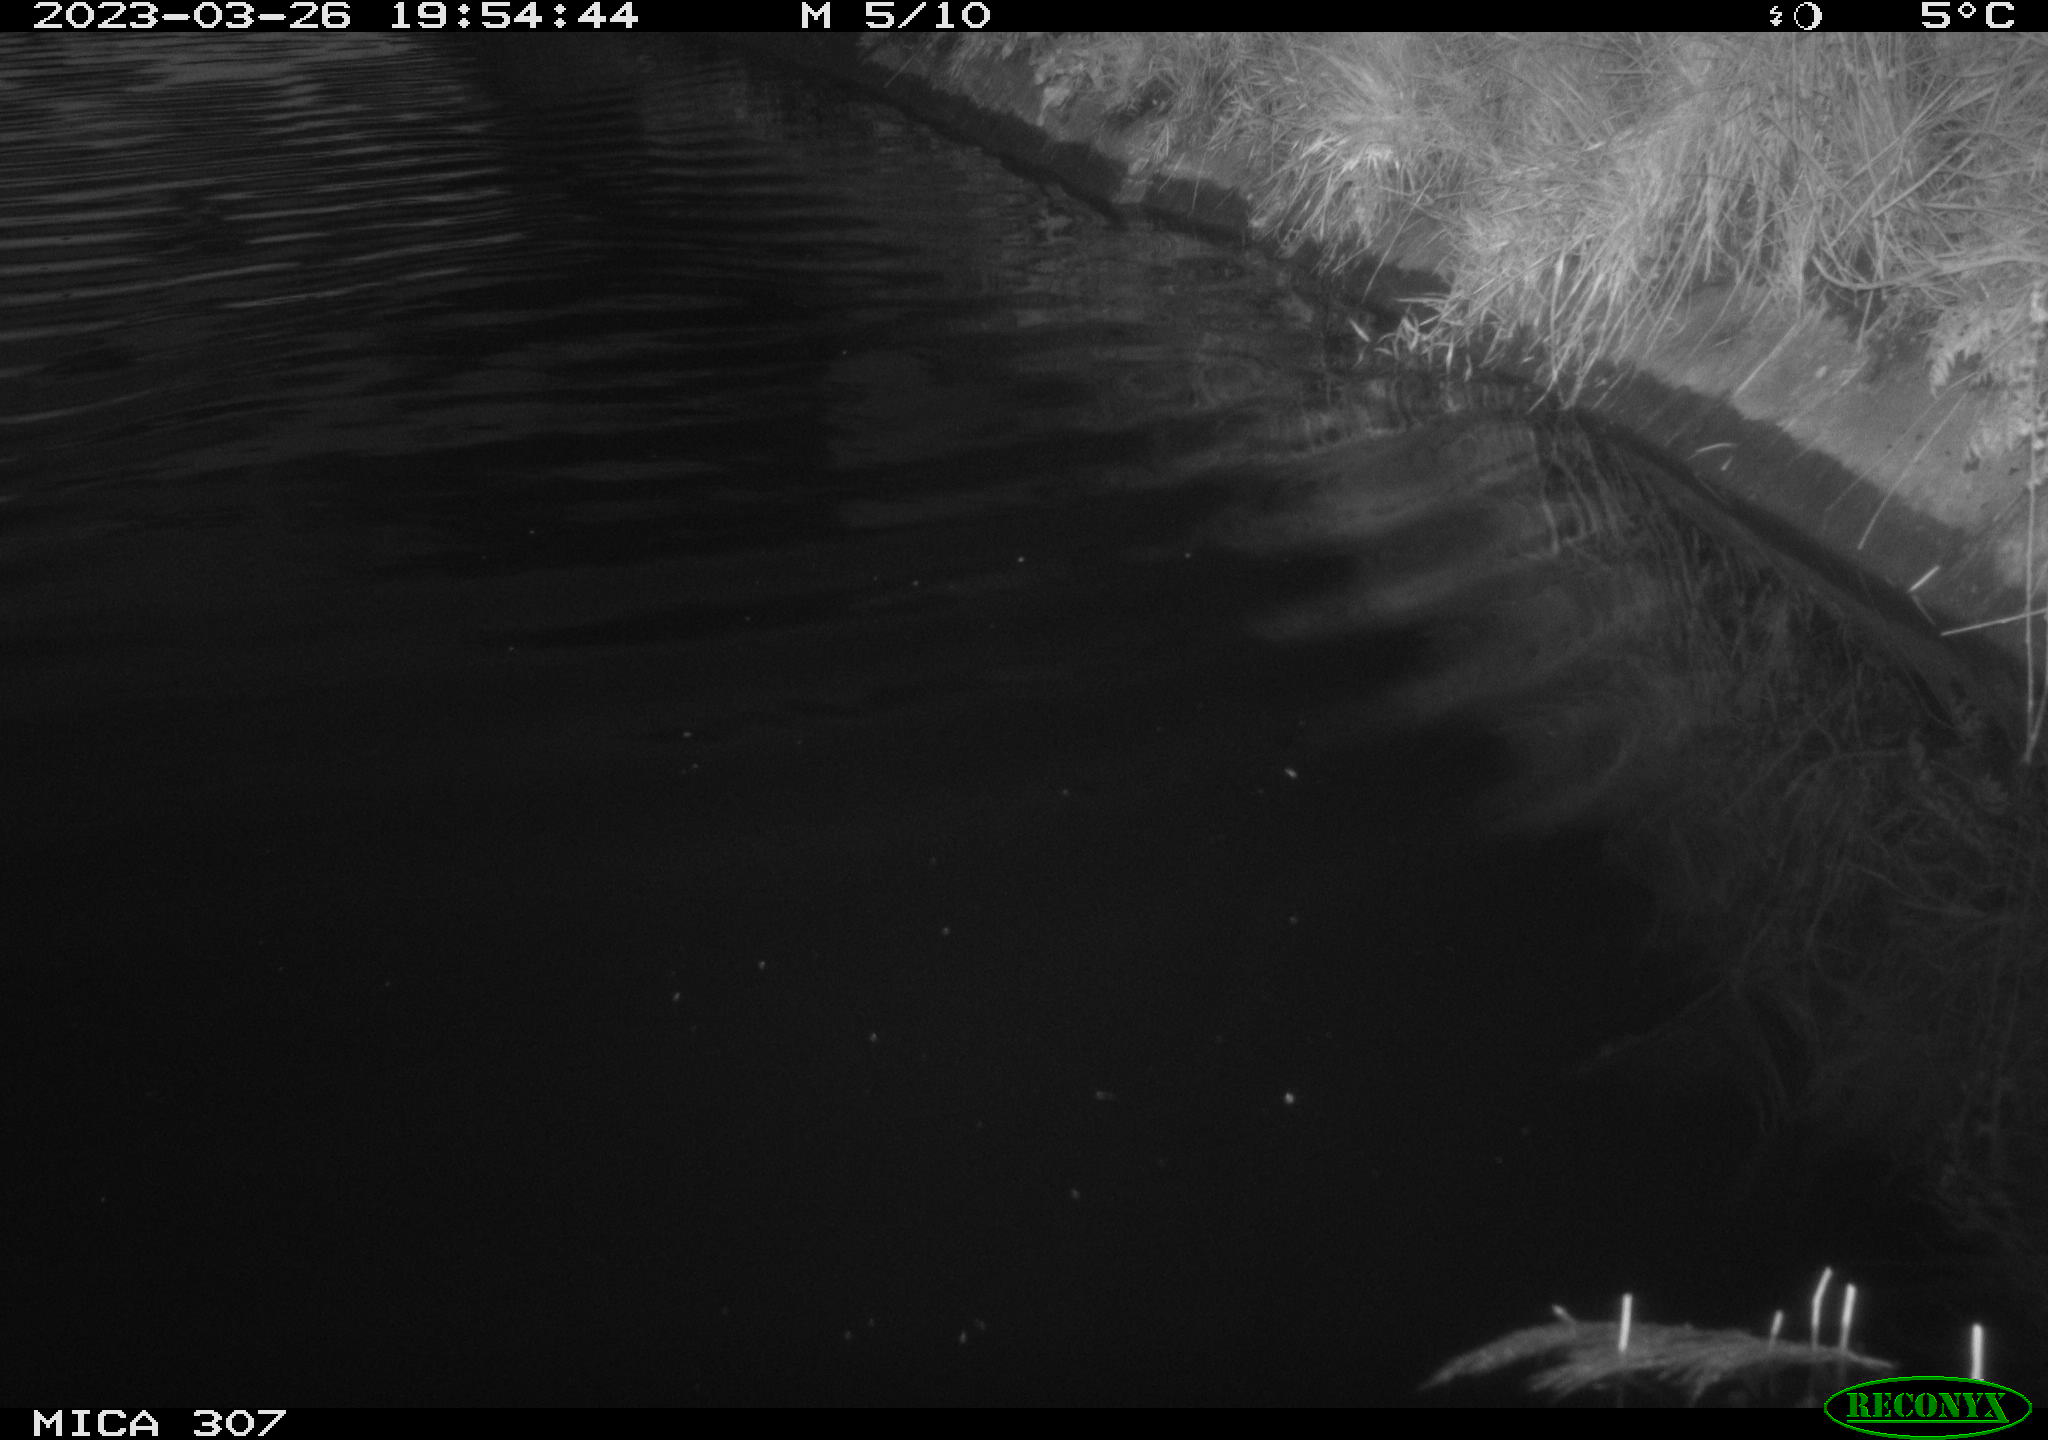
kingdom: Animalia
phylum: Chordata
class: Aves
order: Anseriformes
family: Anatidae
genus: Anas
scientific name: Anas
